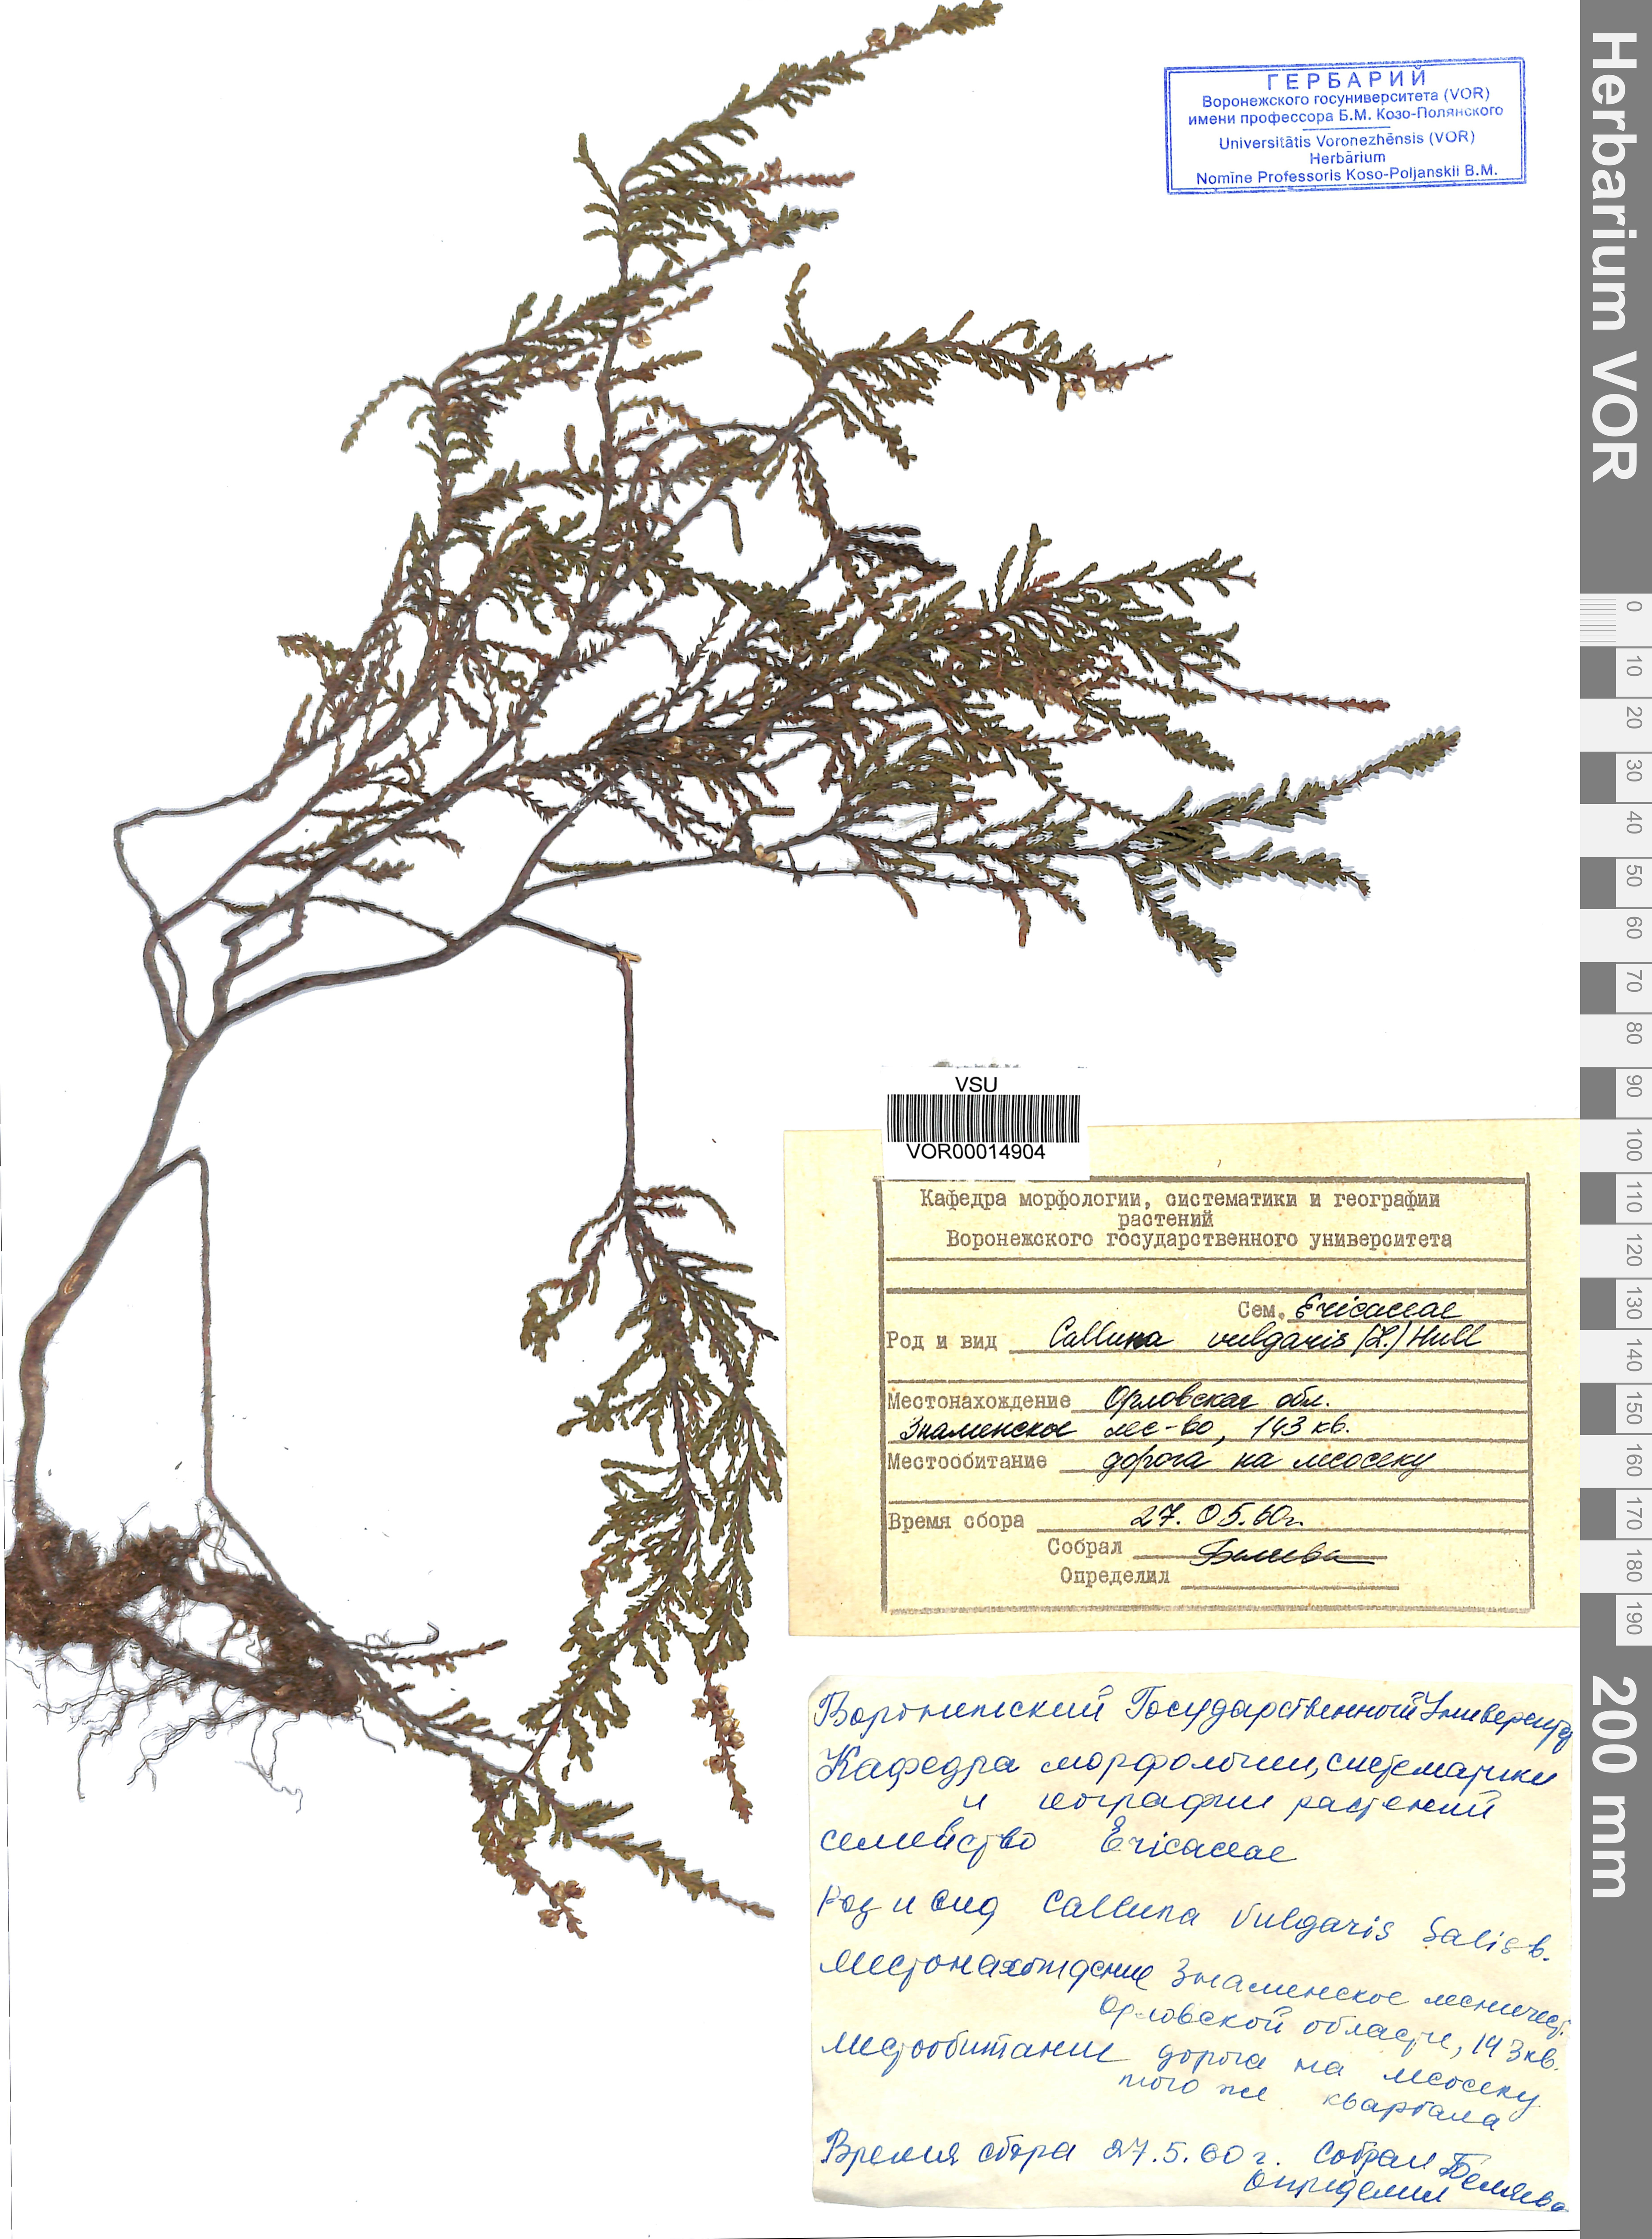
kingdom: Plantae
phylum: Tracheophyta
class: Magnoliopsida
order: Ericales
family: Ericaceae
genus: Calluna
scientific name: Calluna vulgaris
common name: Heather
